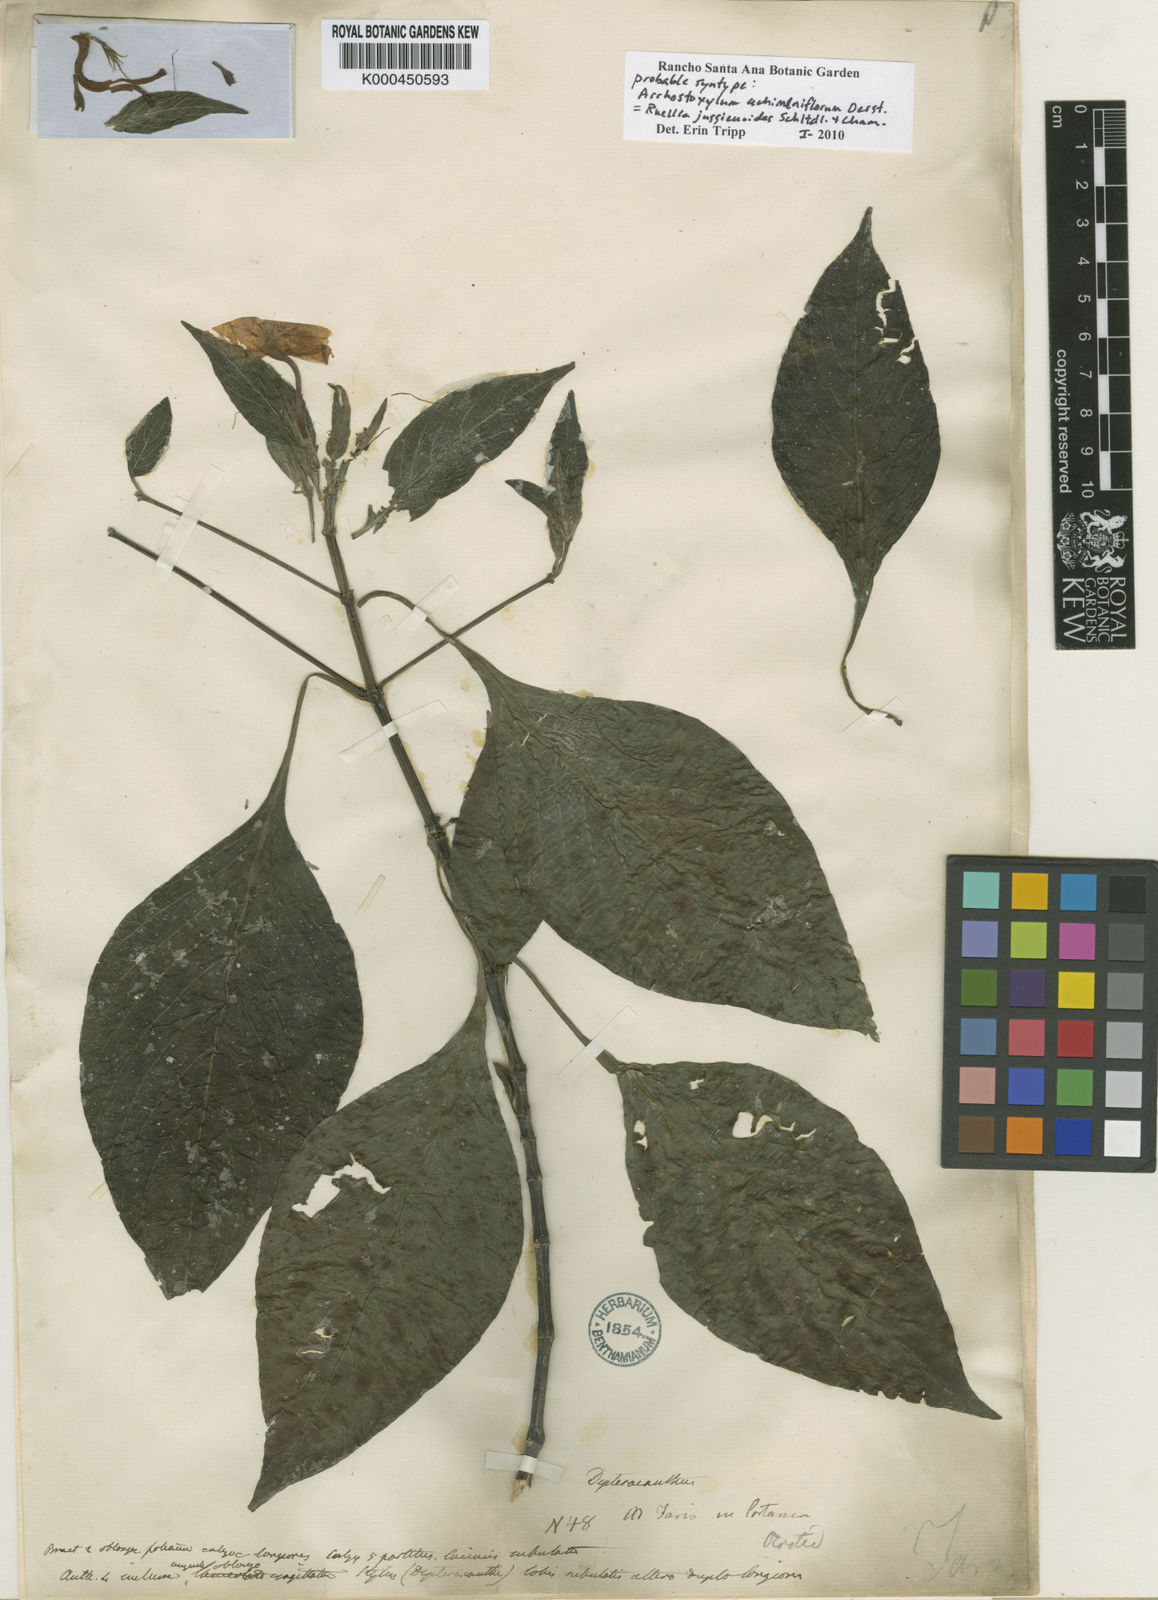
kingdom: Plantae
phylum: Tracheophyta
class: Magnoliopsida
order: Lamiales
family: Acanthaceae
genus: Ruellia
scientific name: Ruellia jussieuoides
